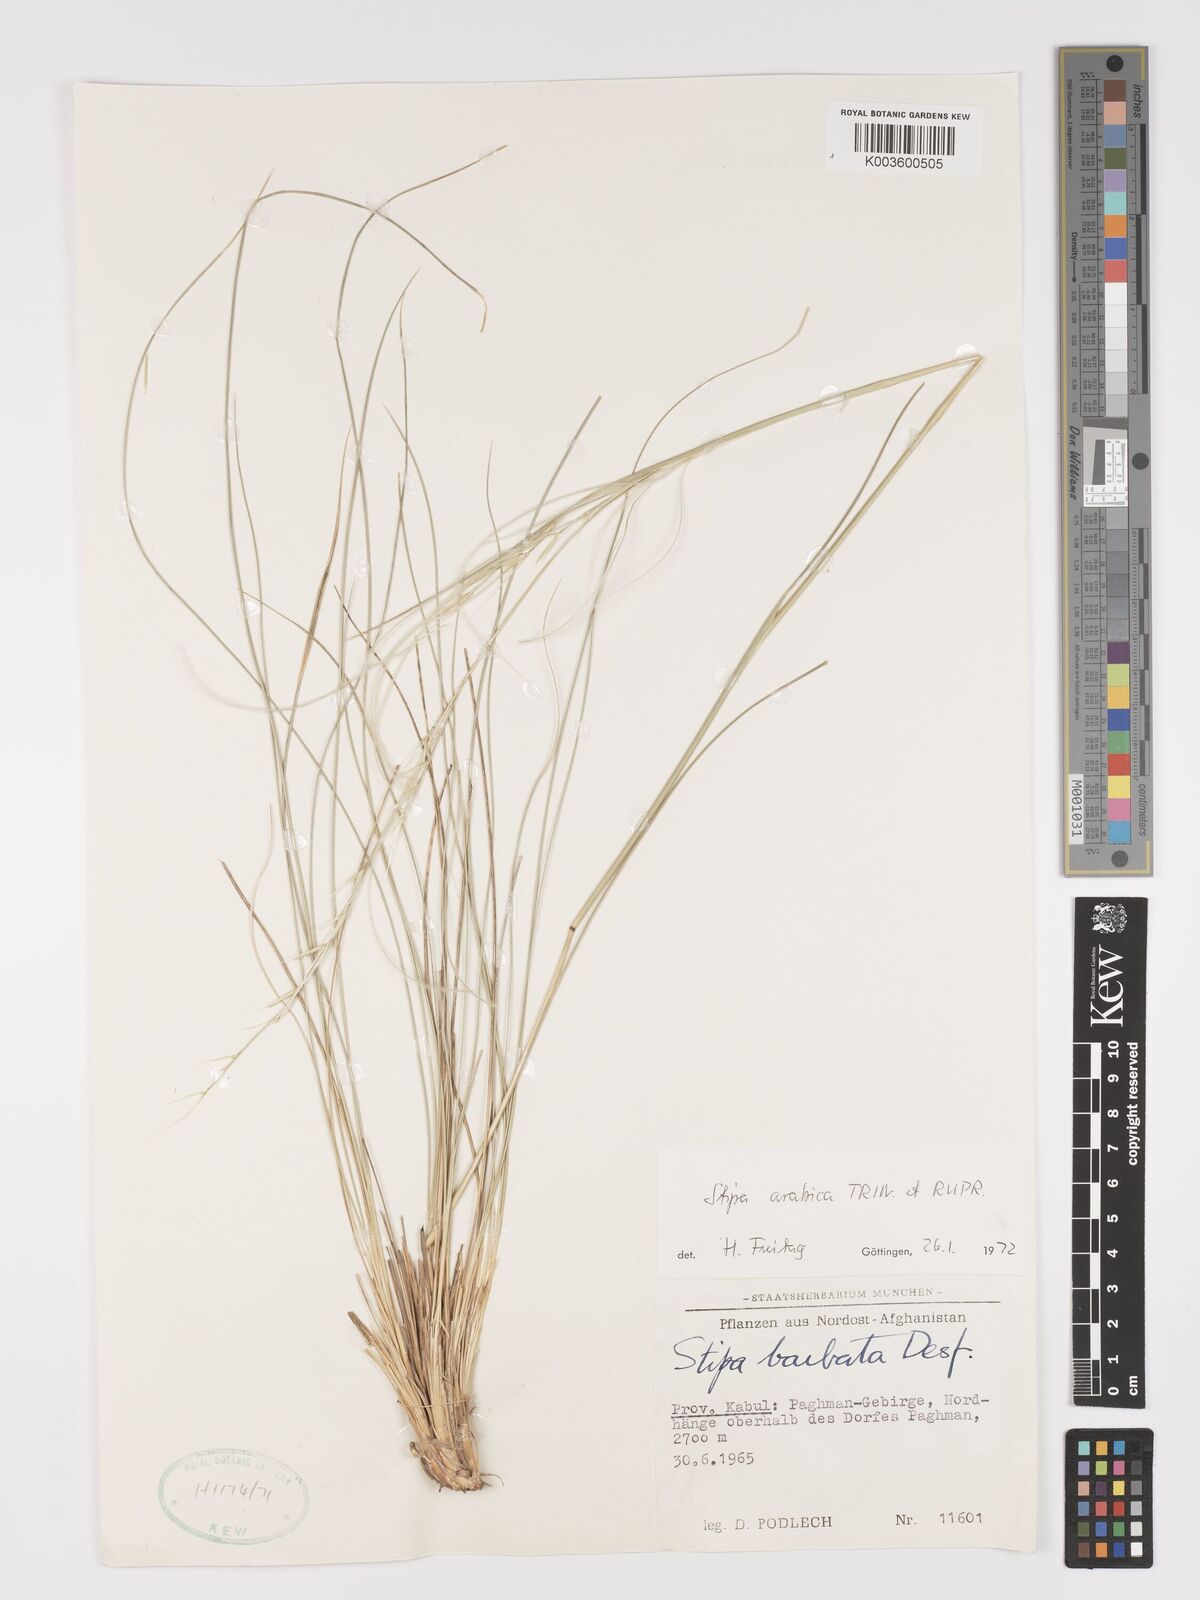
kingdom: Plantae
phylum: Tracheophyta
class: Liliopsida
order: Poales
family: Poaceae
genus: Stipa
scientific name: Stipa arabica
